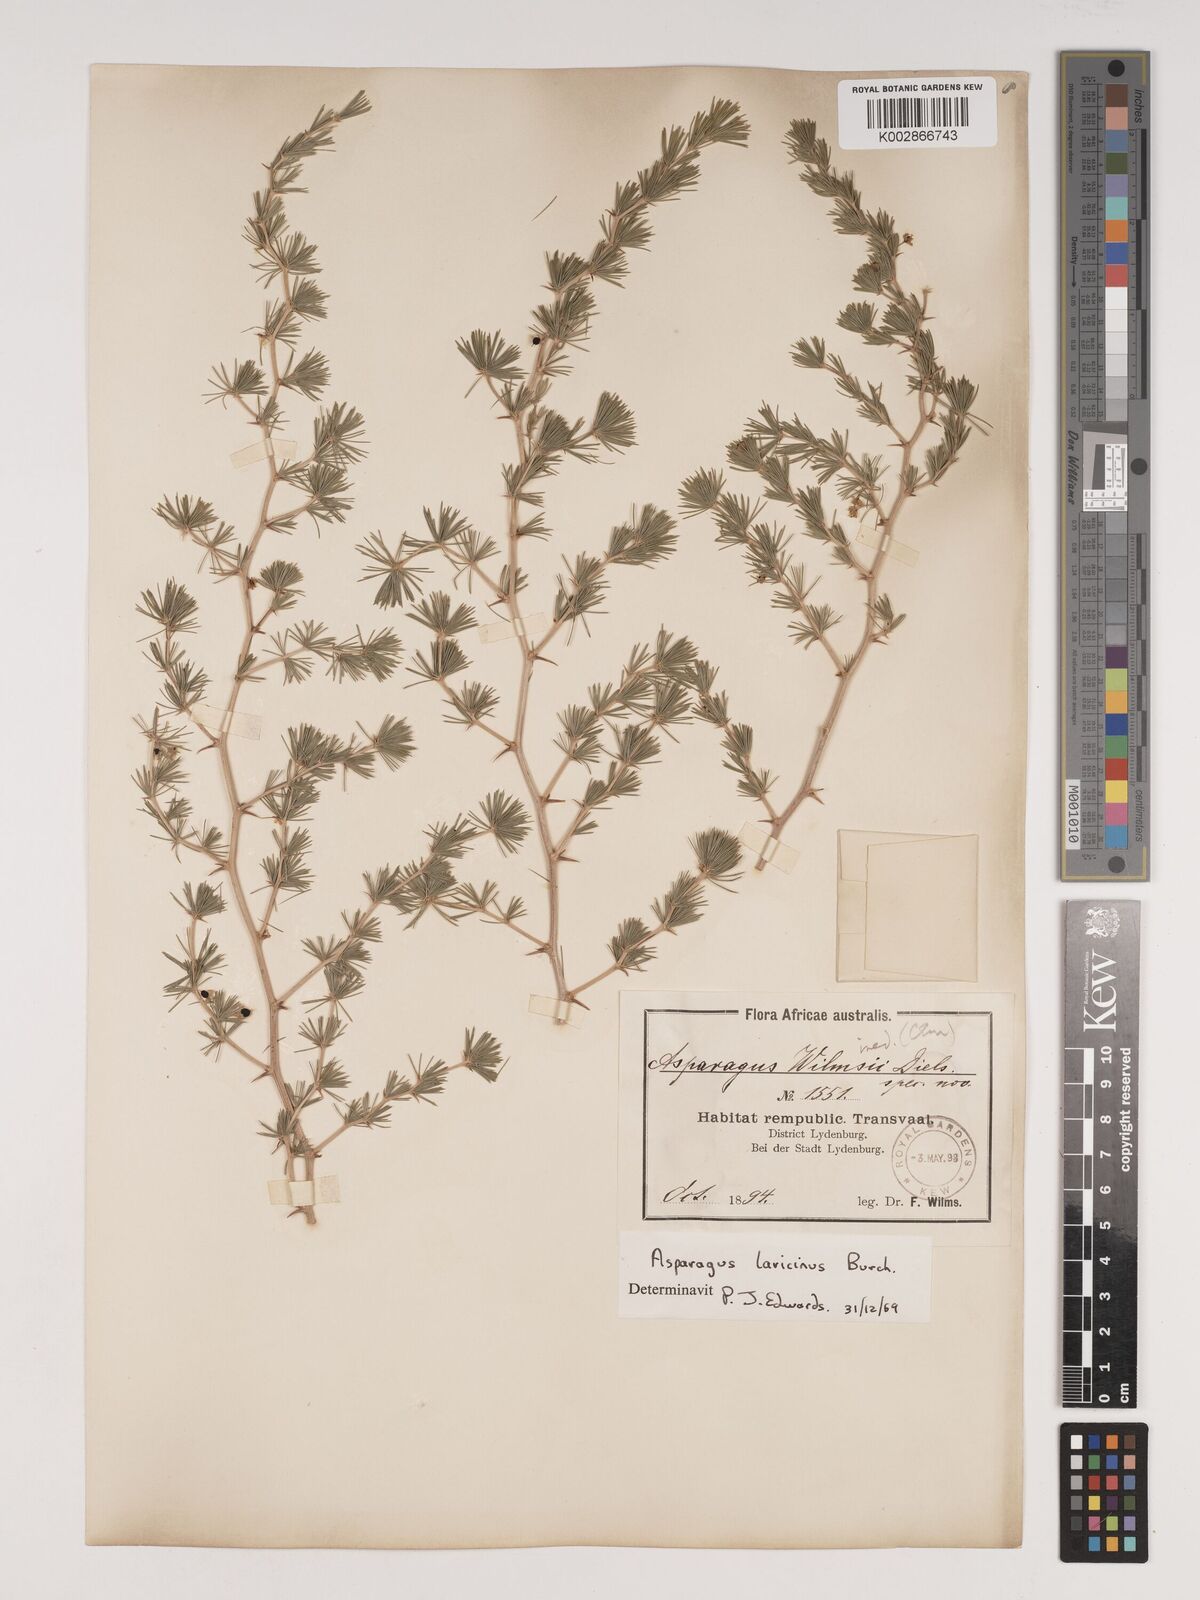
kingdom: Plantae
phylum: Tracheophyta
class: Liliopsida
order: Asparagales
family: Asparagaceae
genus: Asparagus
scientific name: Asparagus laricinus
